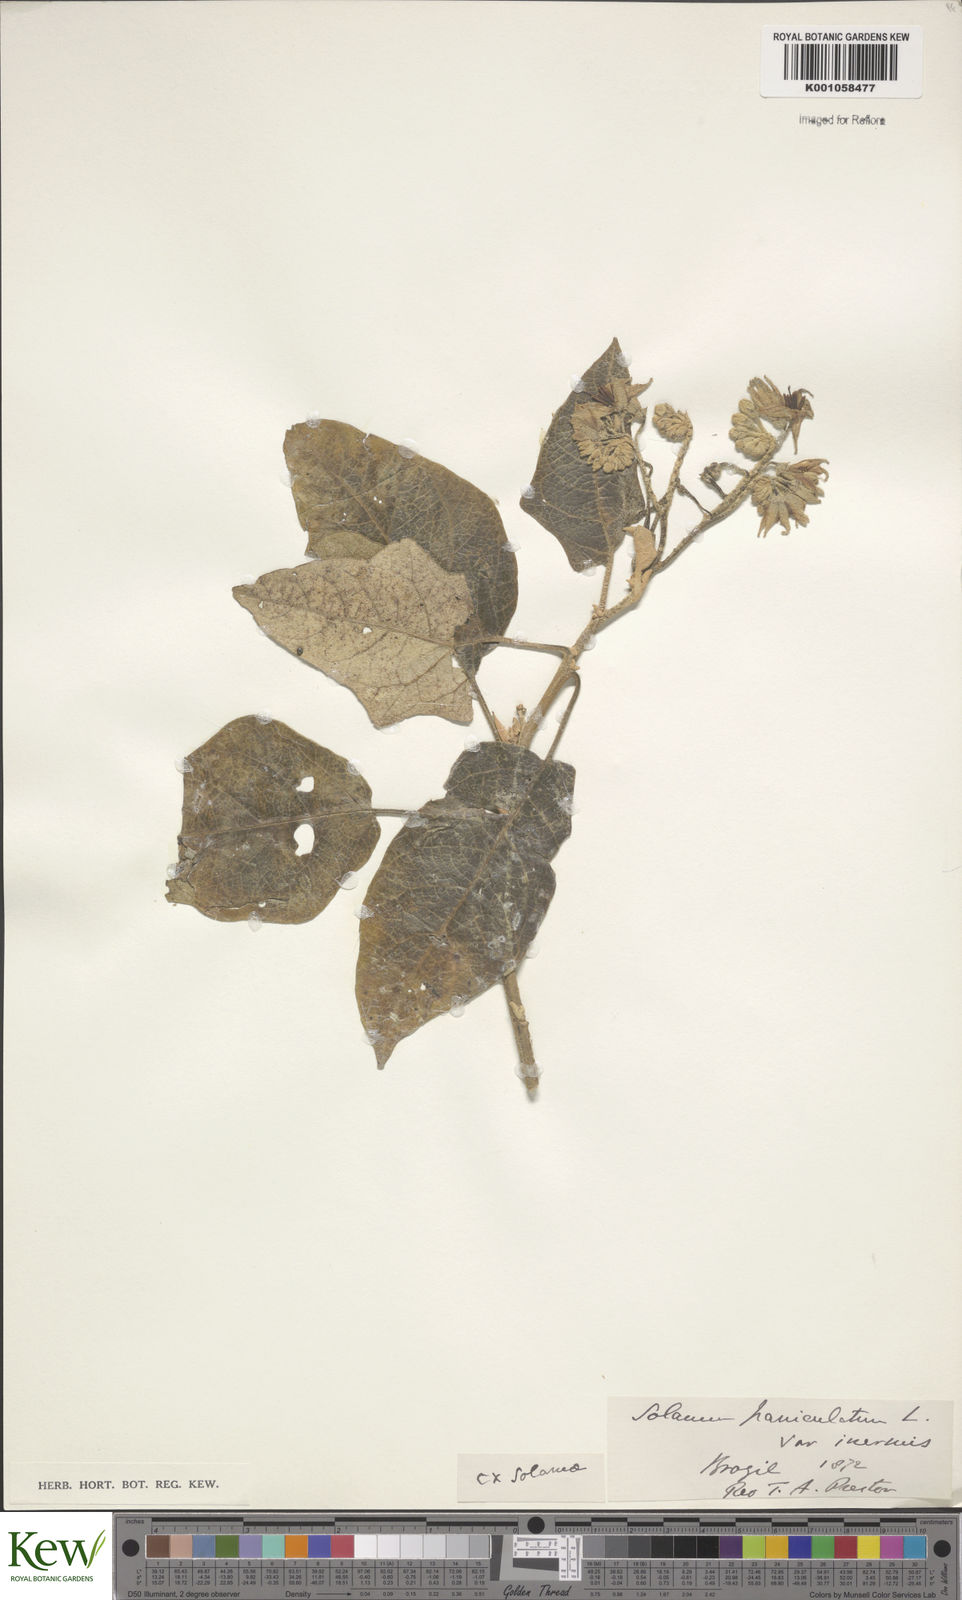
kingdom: Plantae
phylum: Tracheophyta
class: Magnoliopsida
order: Solanales
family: Solanaceae
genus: Solanum
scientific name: Solanum paniculatum
